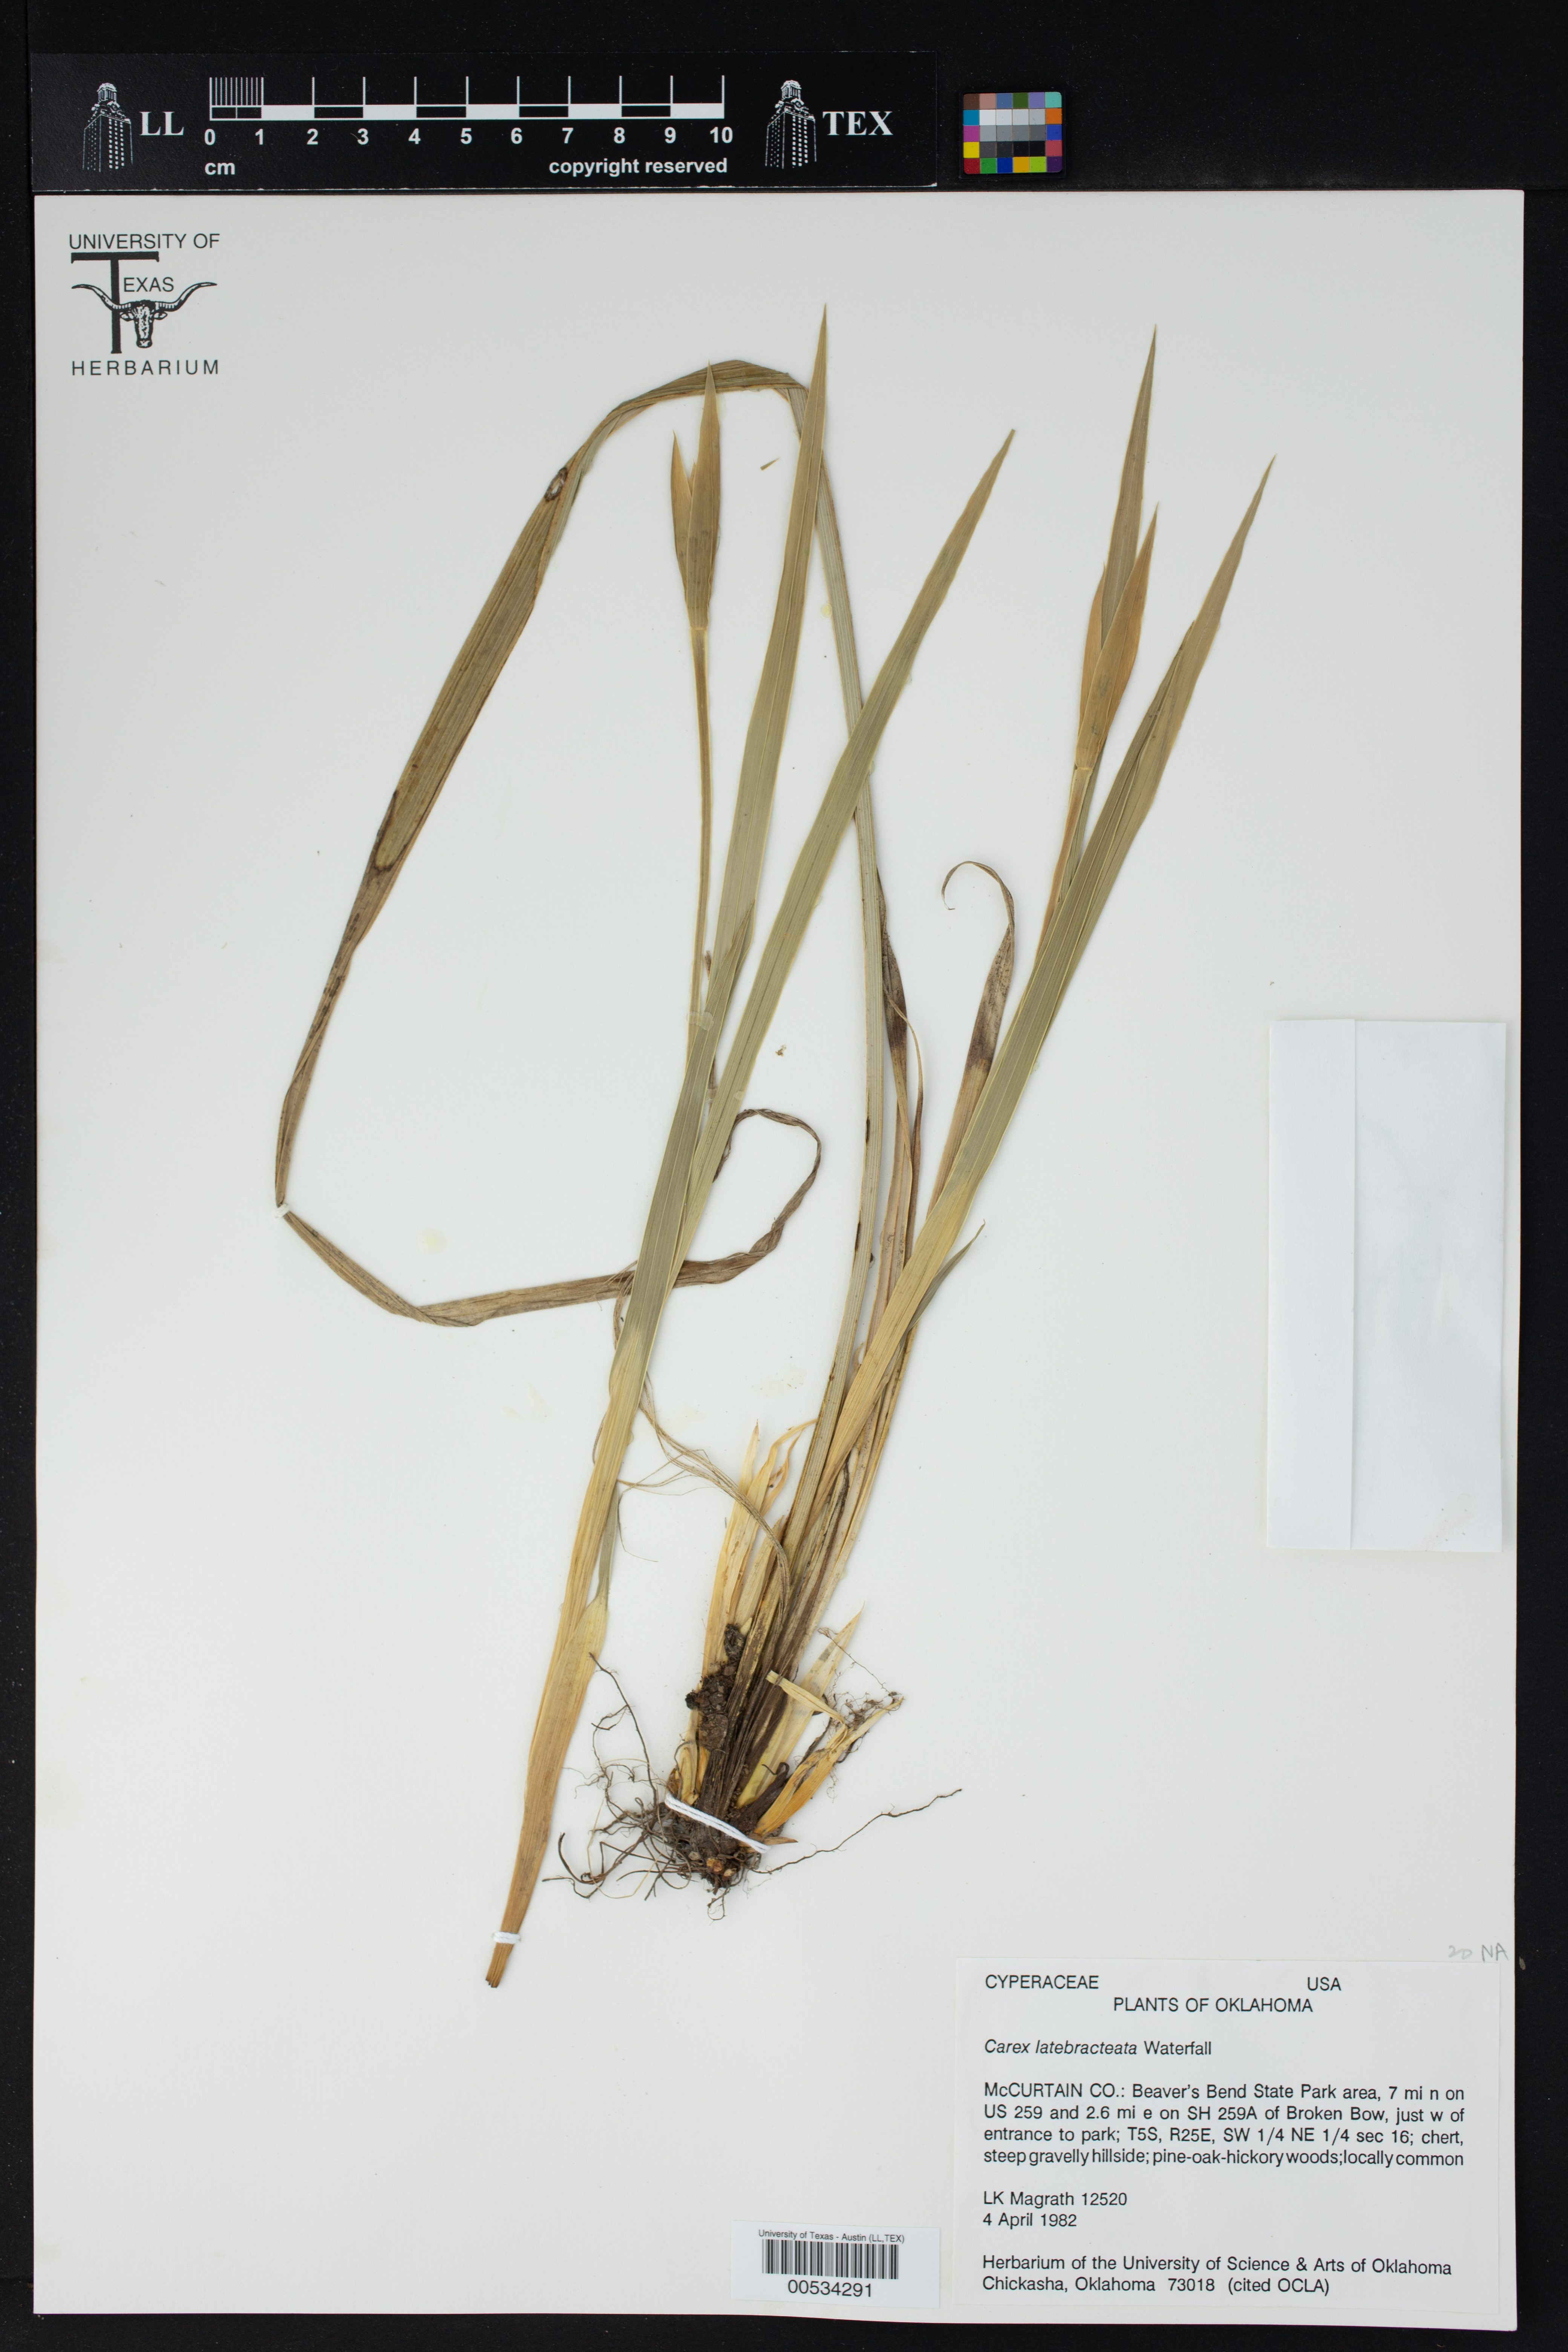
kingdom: Plantae
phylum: Tracheophyta
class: Liliopsida
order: Poales
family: Cyperaceae
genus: Carex
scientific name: Carex latebracteata
